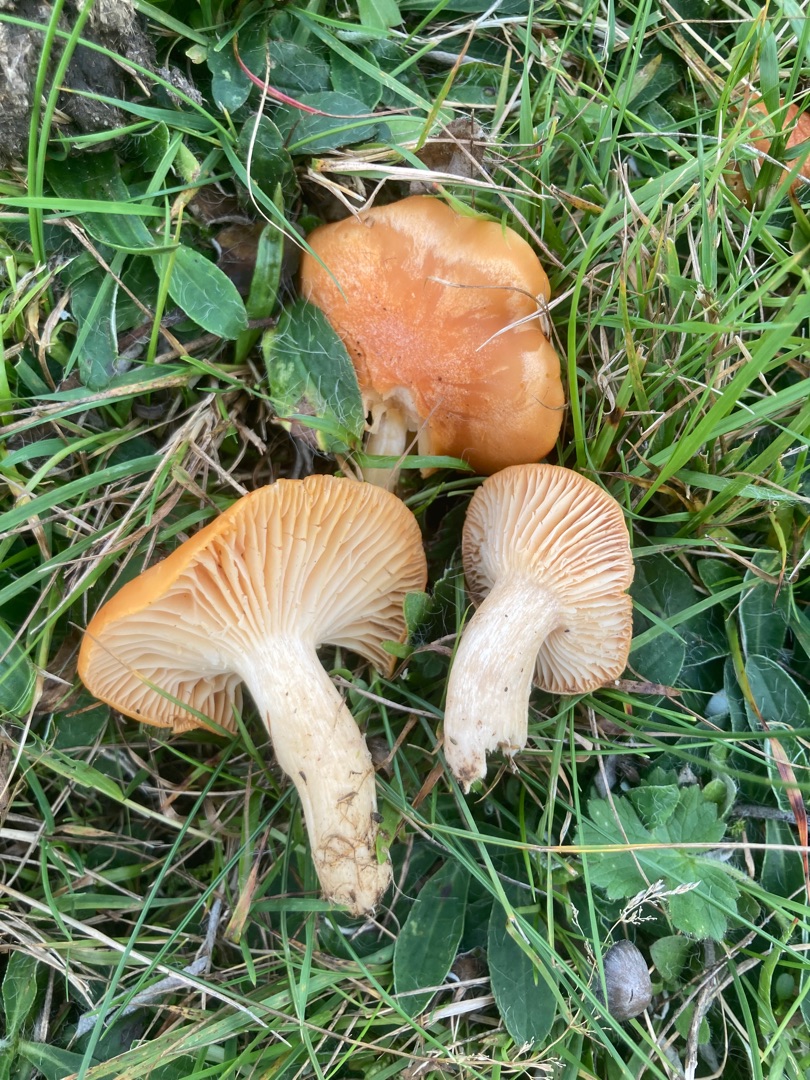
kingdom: Fungi
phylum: Basidiomycota
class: Agaricomycetes
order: Agaricales
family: Hygrophoraceae
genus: Cuphophyllus
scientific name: Cuphophyllus pratensis
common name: Eng-vokshat
